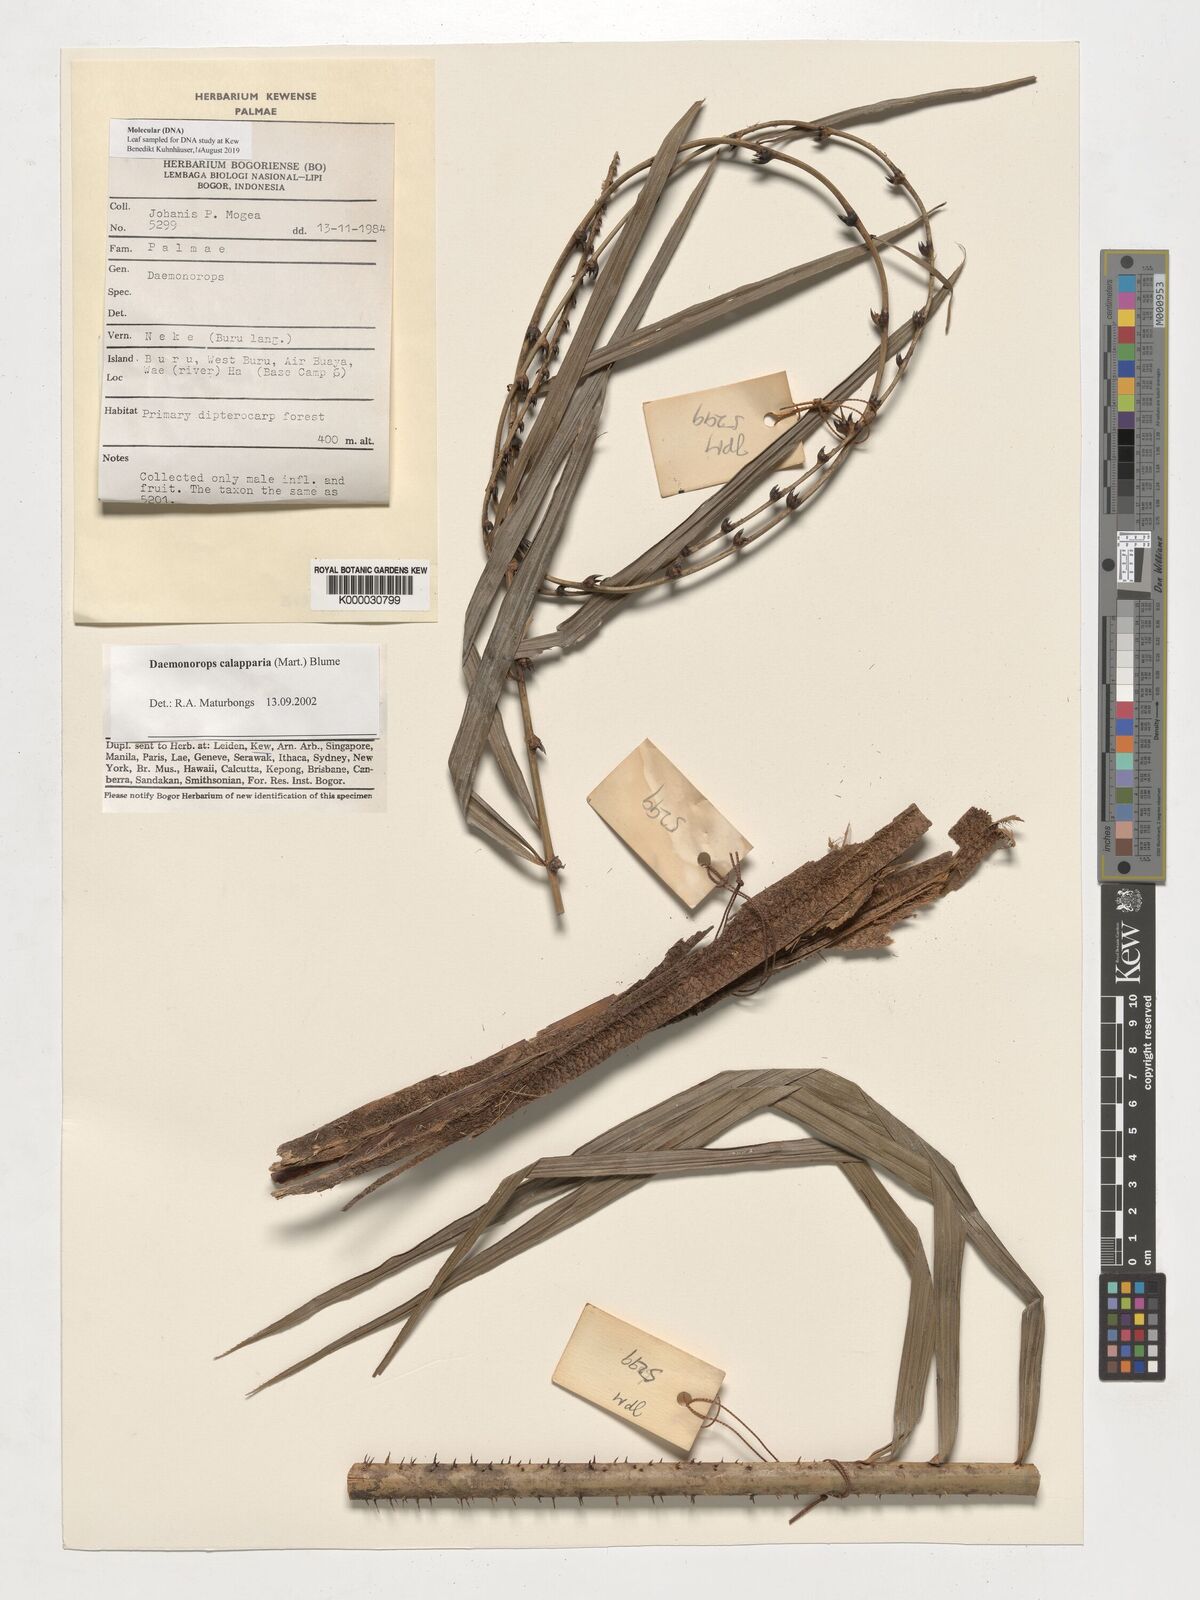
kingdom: Plantae
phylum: Tracheophyta
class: Liliopsida
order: Arecales
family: Arecaceae
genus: Calamus
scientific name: Calamus calapparius
